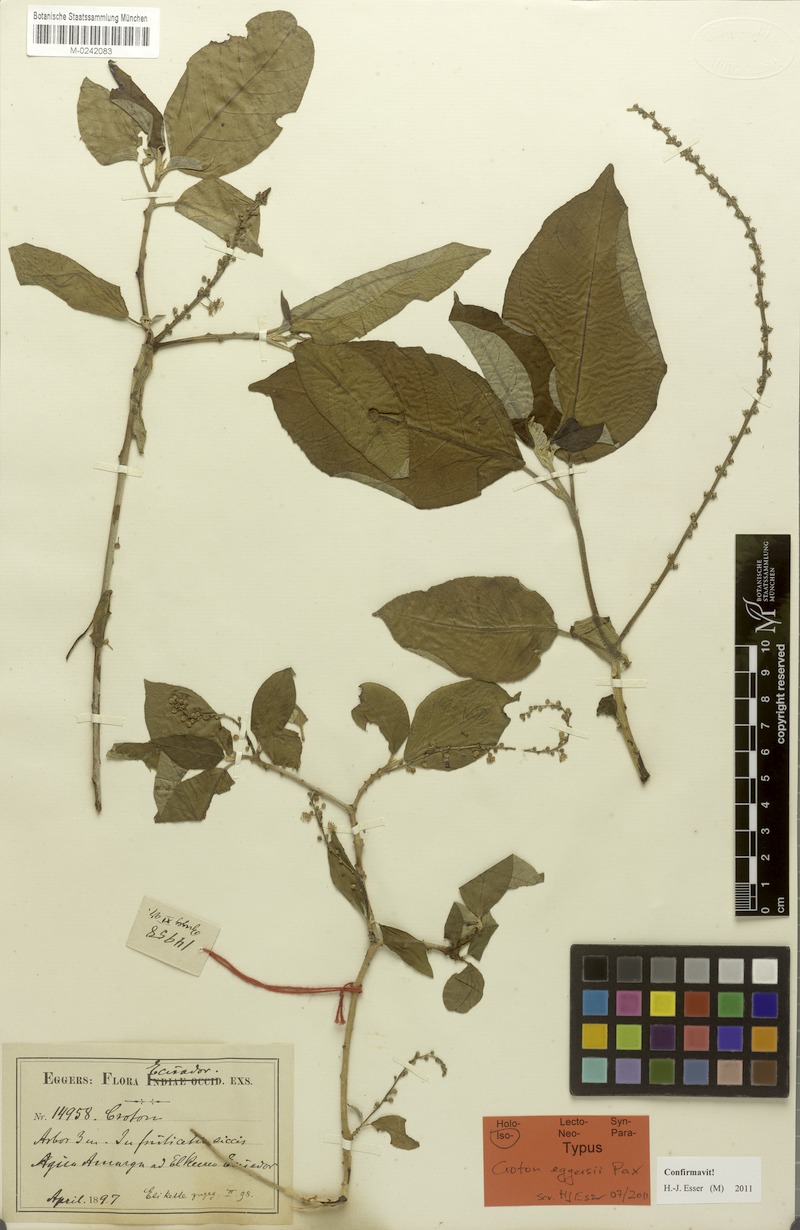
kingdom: Plantae
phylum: Tracheophyta
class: Magnoliopsida
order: Malpighiales
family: Euphorbiaceae
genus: Croton
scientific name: Croton eggersii
